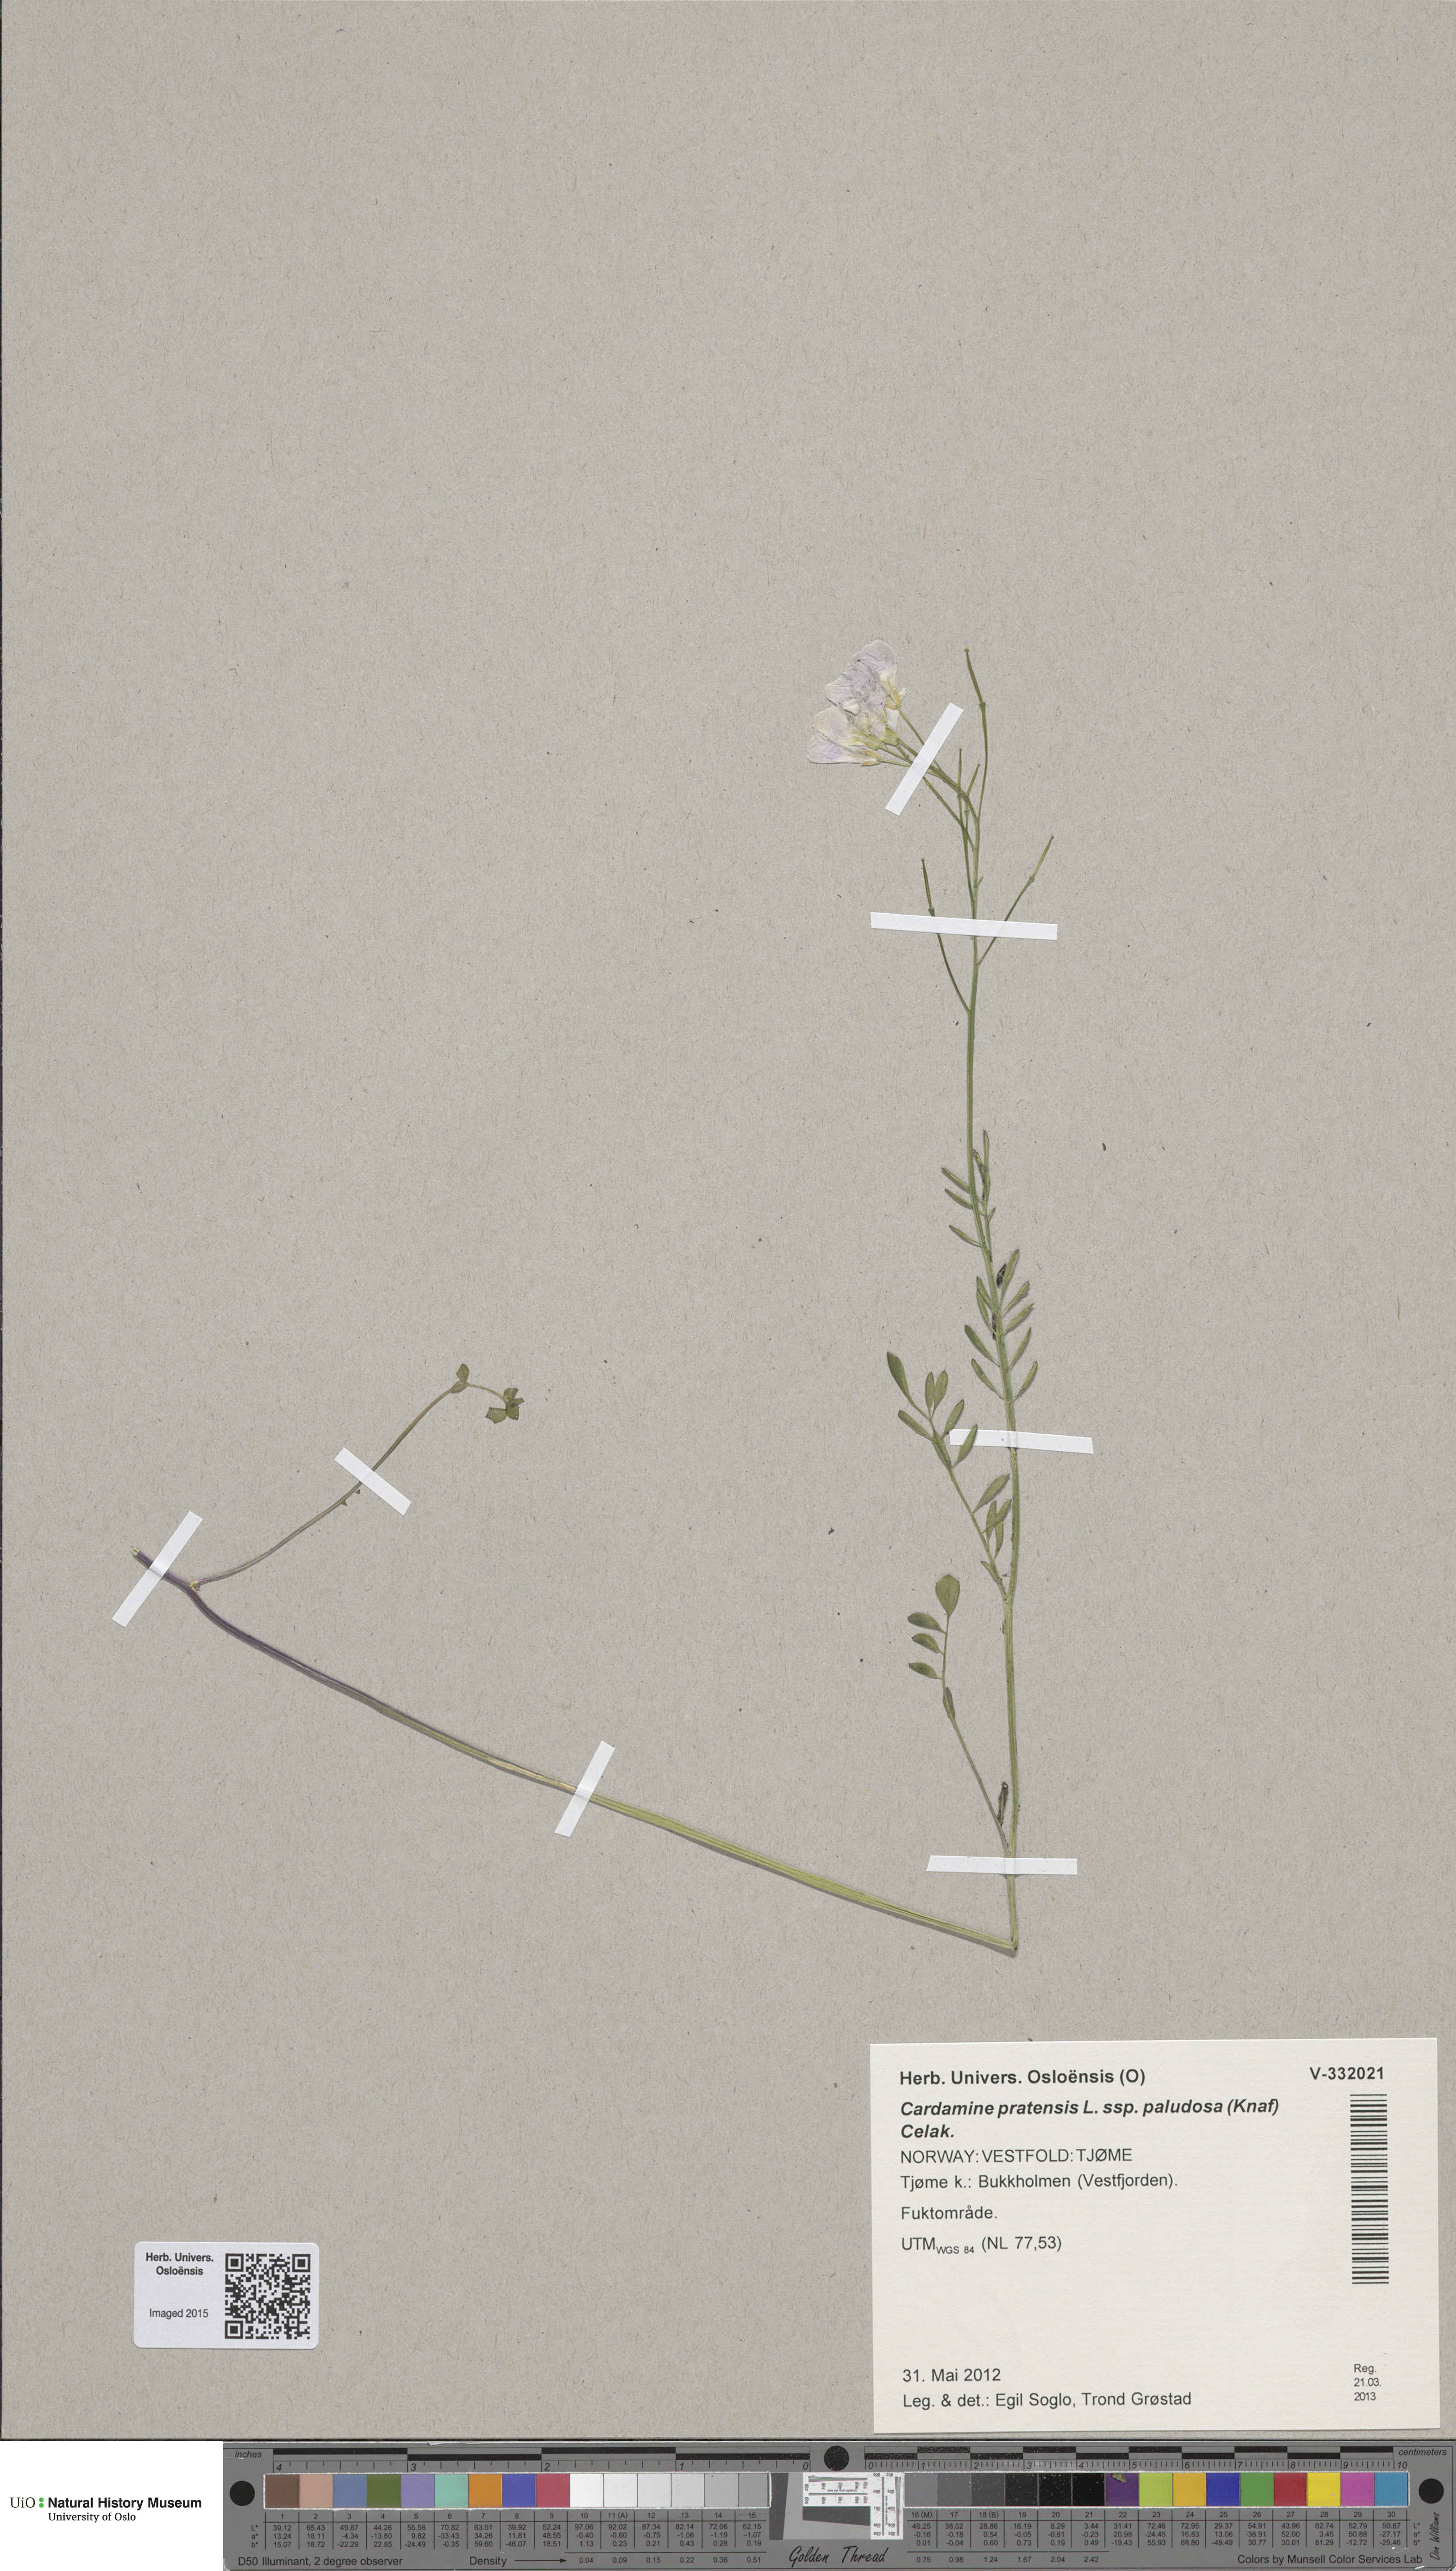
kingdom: Plantae
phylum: Tracheophyta
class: Magnoliopsida
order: Brassicales
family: Brassicaceae
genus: Cardamine
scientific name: Cardamine dentata
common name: Toothed bittercress
